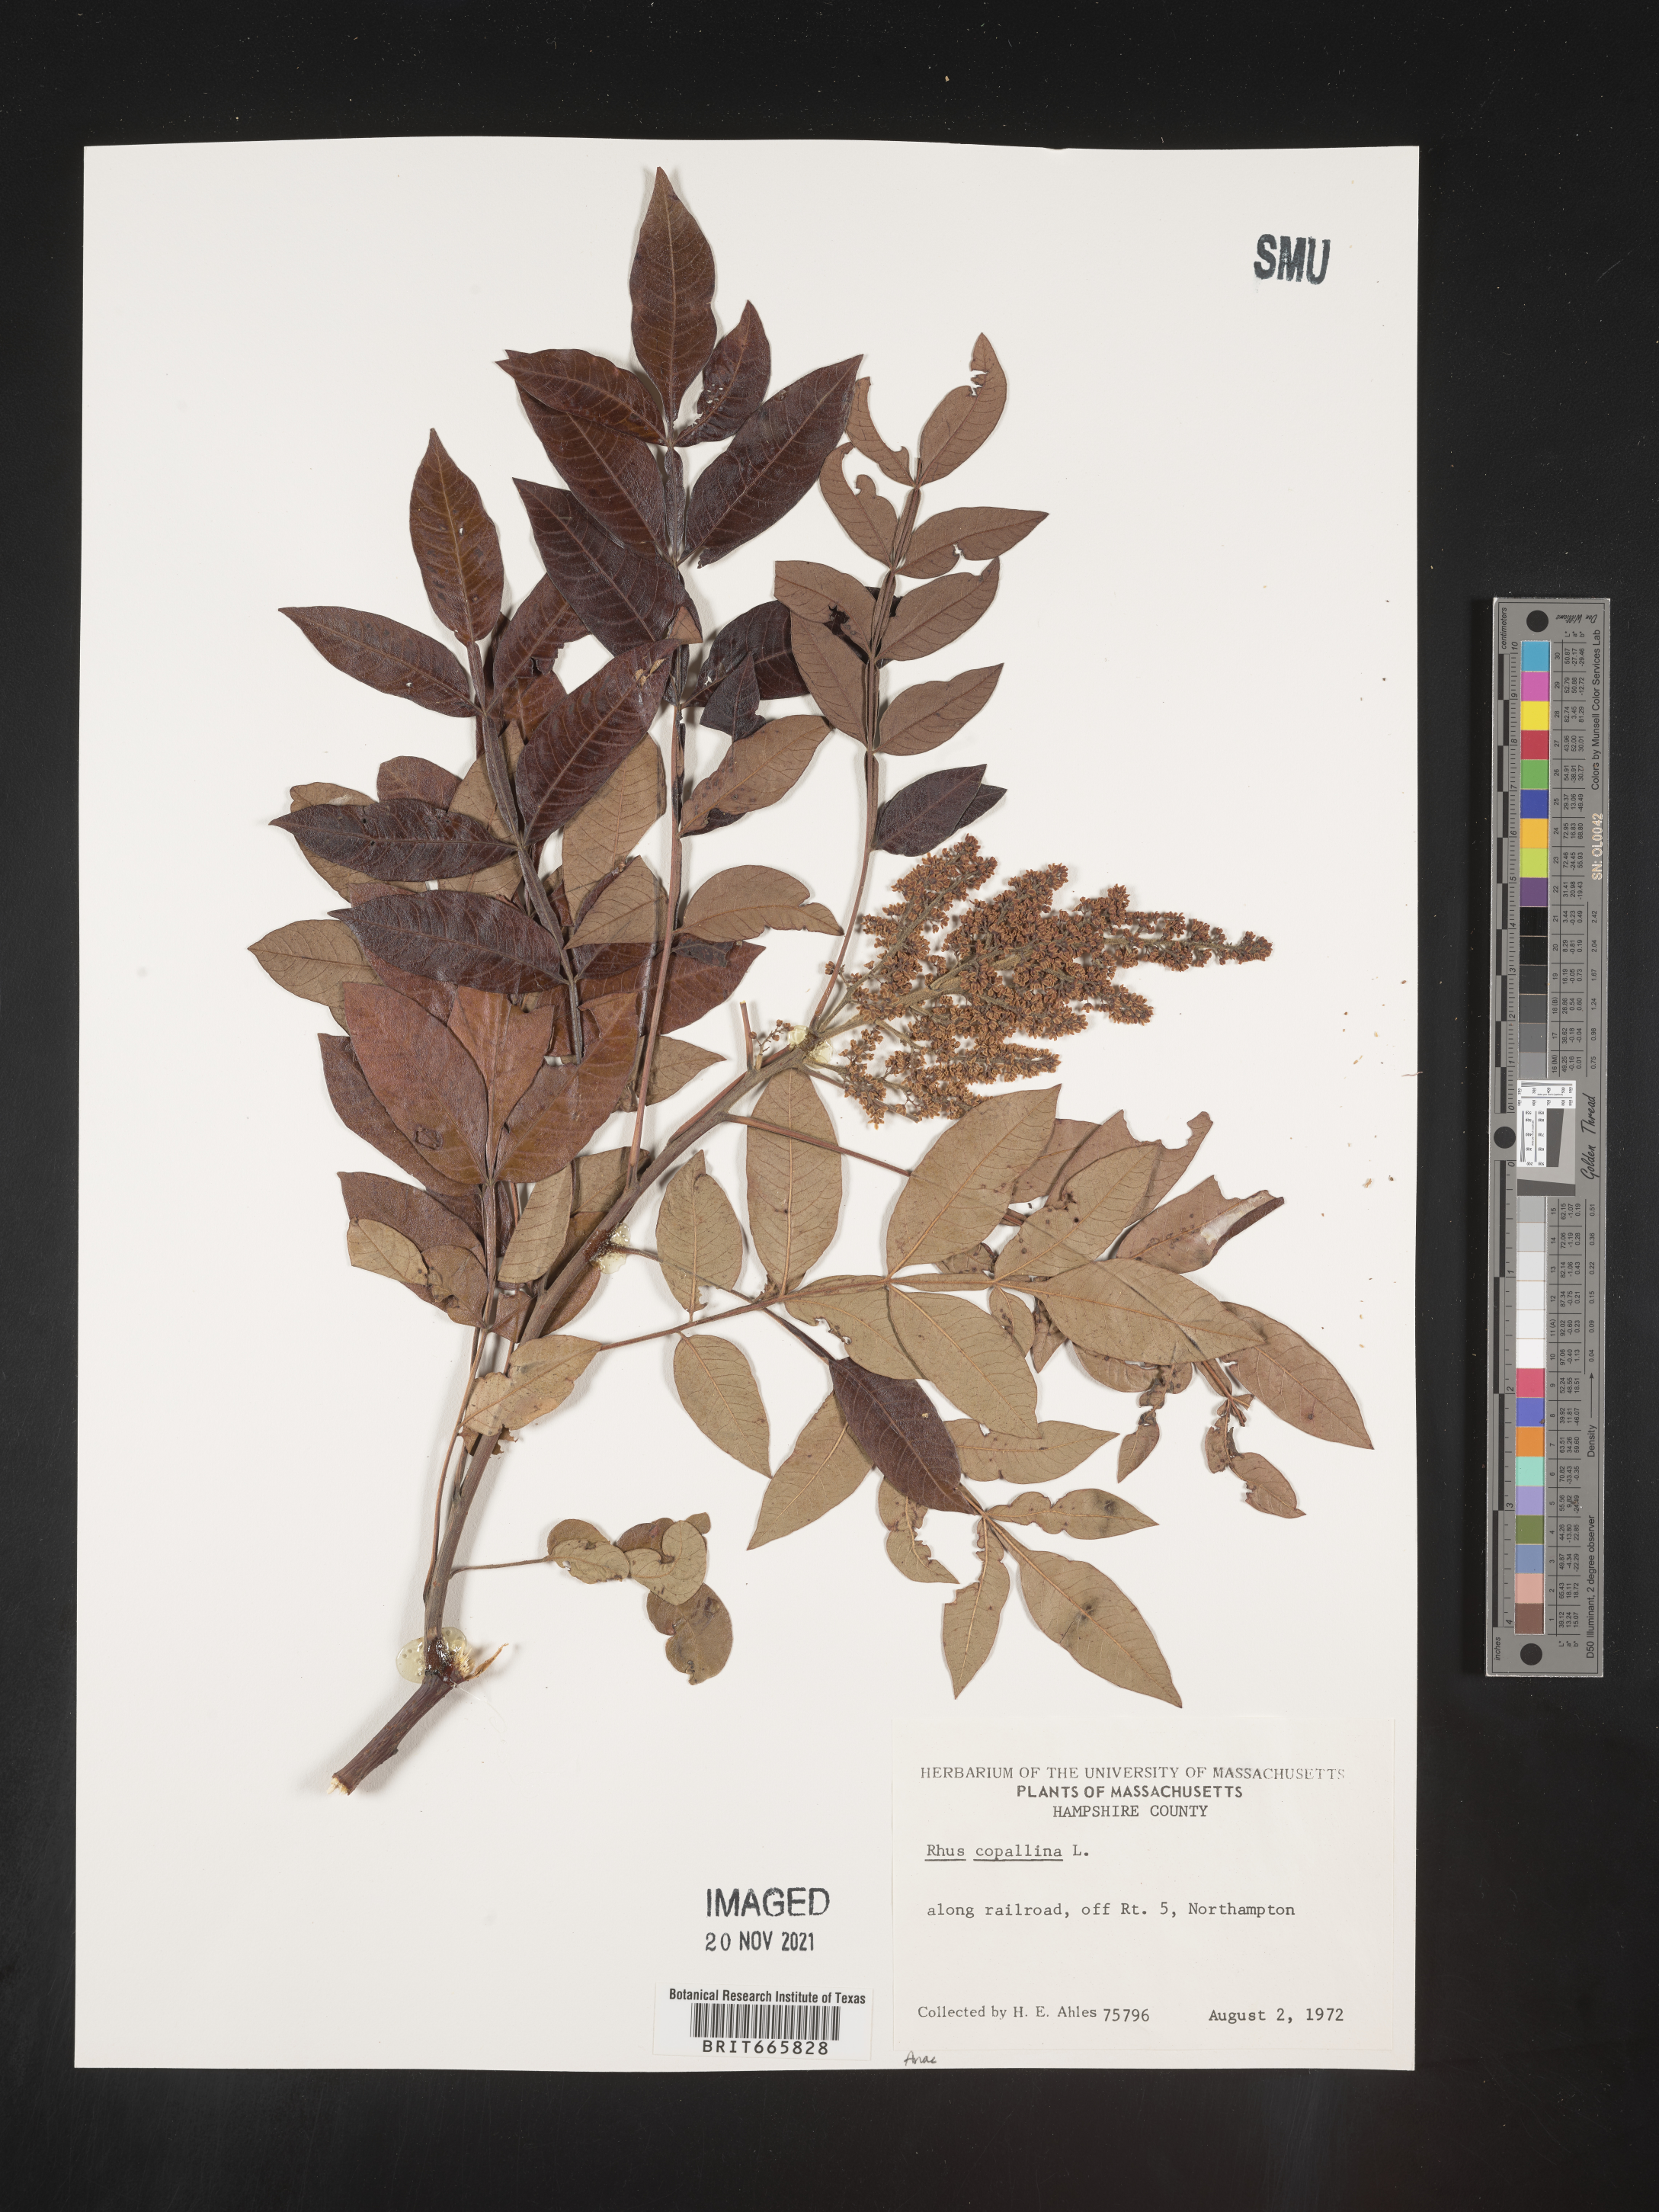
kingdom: Plantae
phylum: Tracheophyta
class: Magnoliopsida
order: Sapindales
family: Anacardiaceae
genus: Rhus
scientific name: Rhus copallina
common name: Shining sumac
